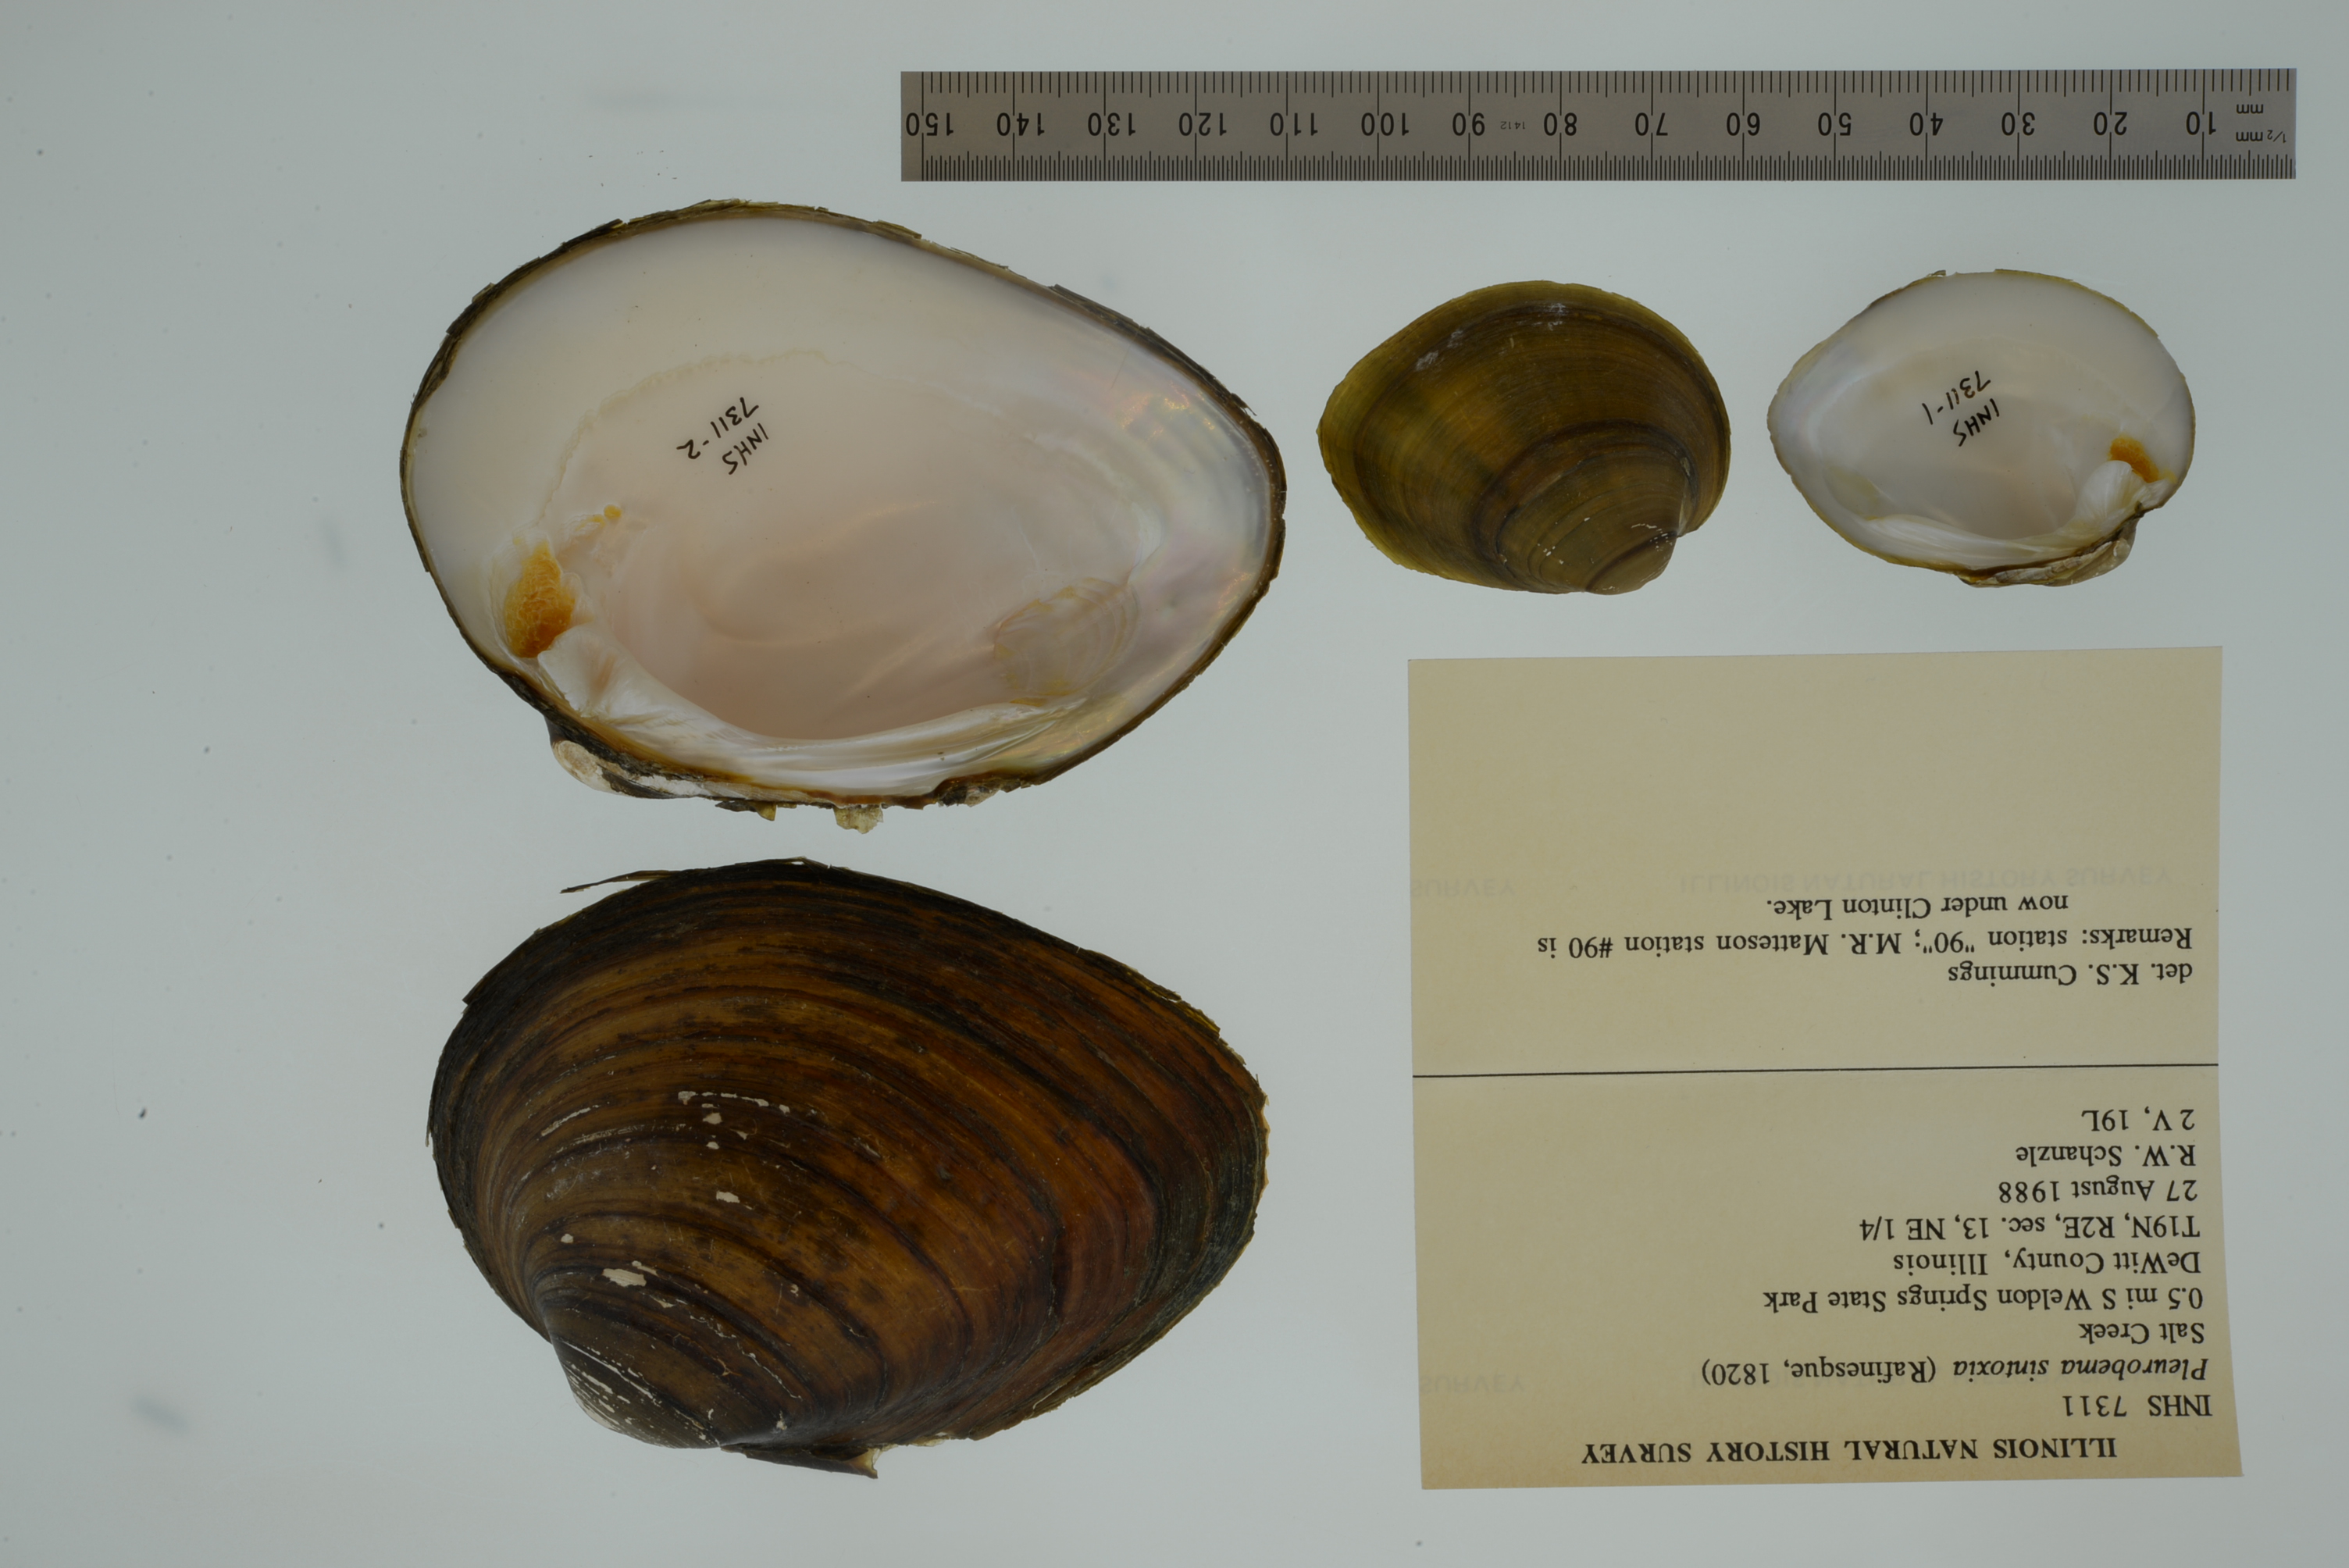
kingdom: Animalia
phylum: Mollusca
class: Bivalvia
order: Unionida
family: Unionidae
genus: Pleurobema
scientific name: Pleurobema sintoxia
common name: Round pigtoe
